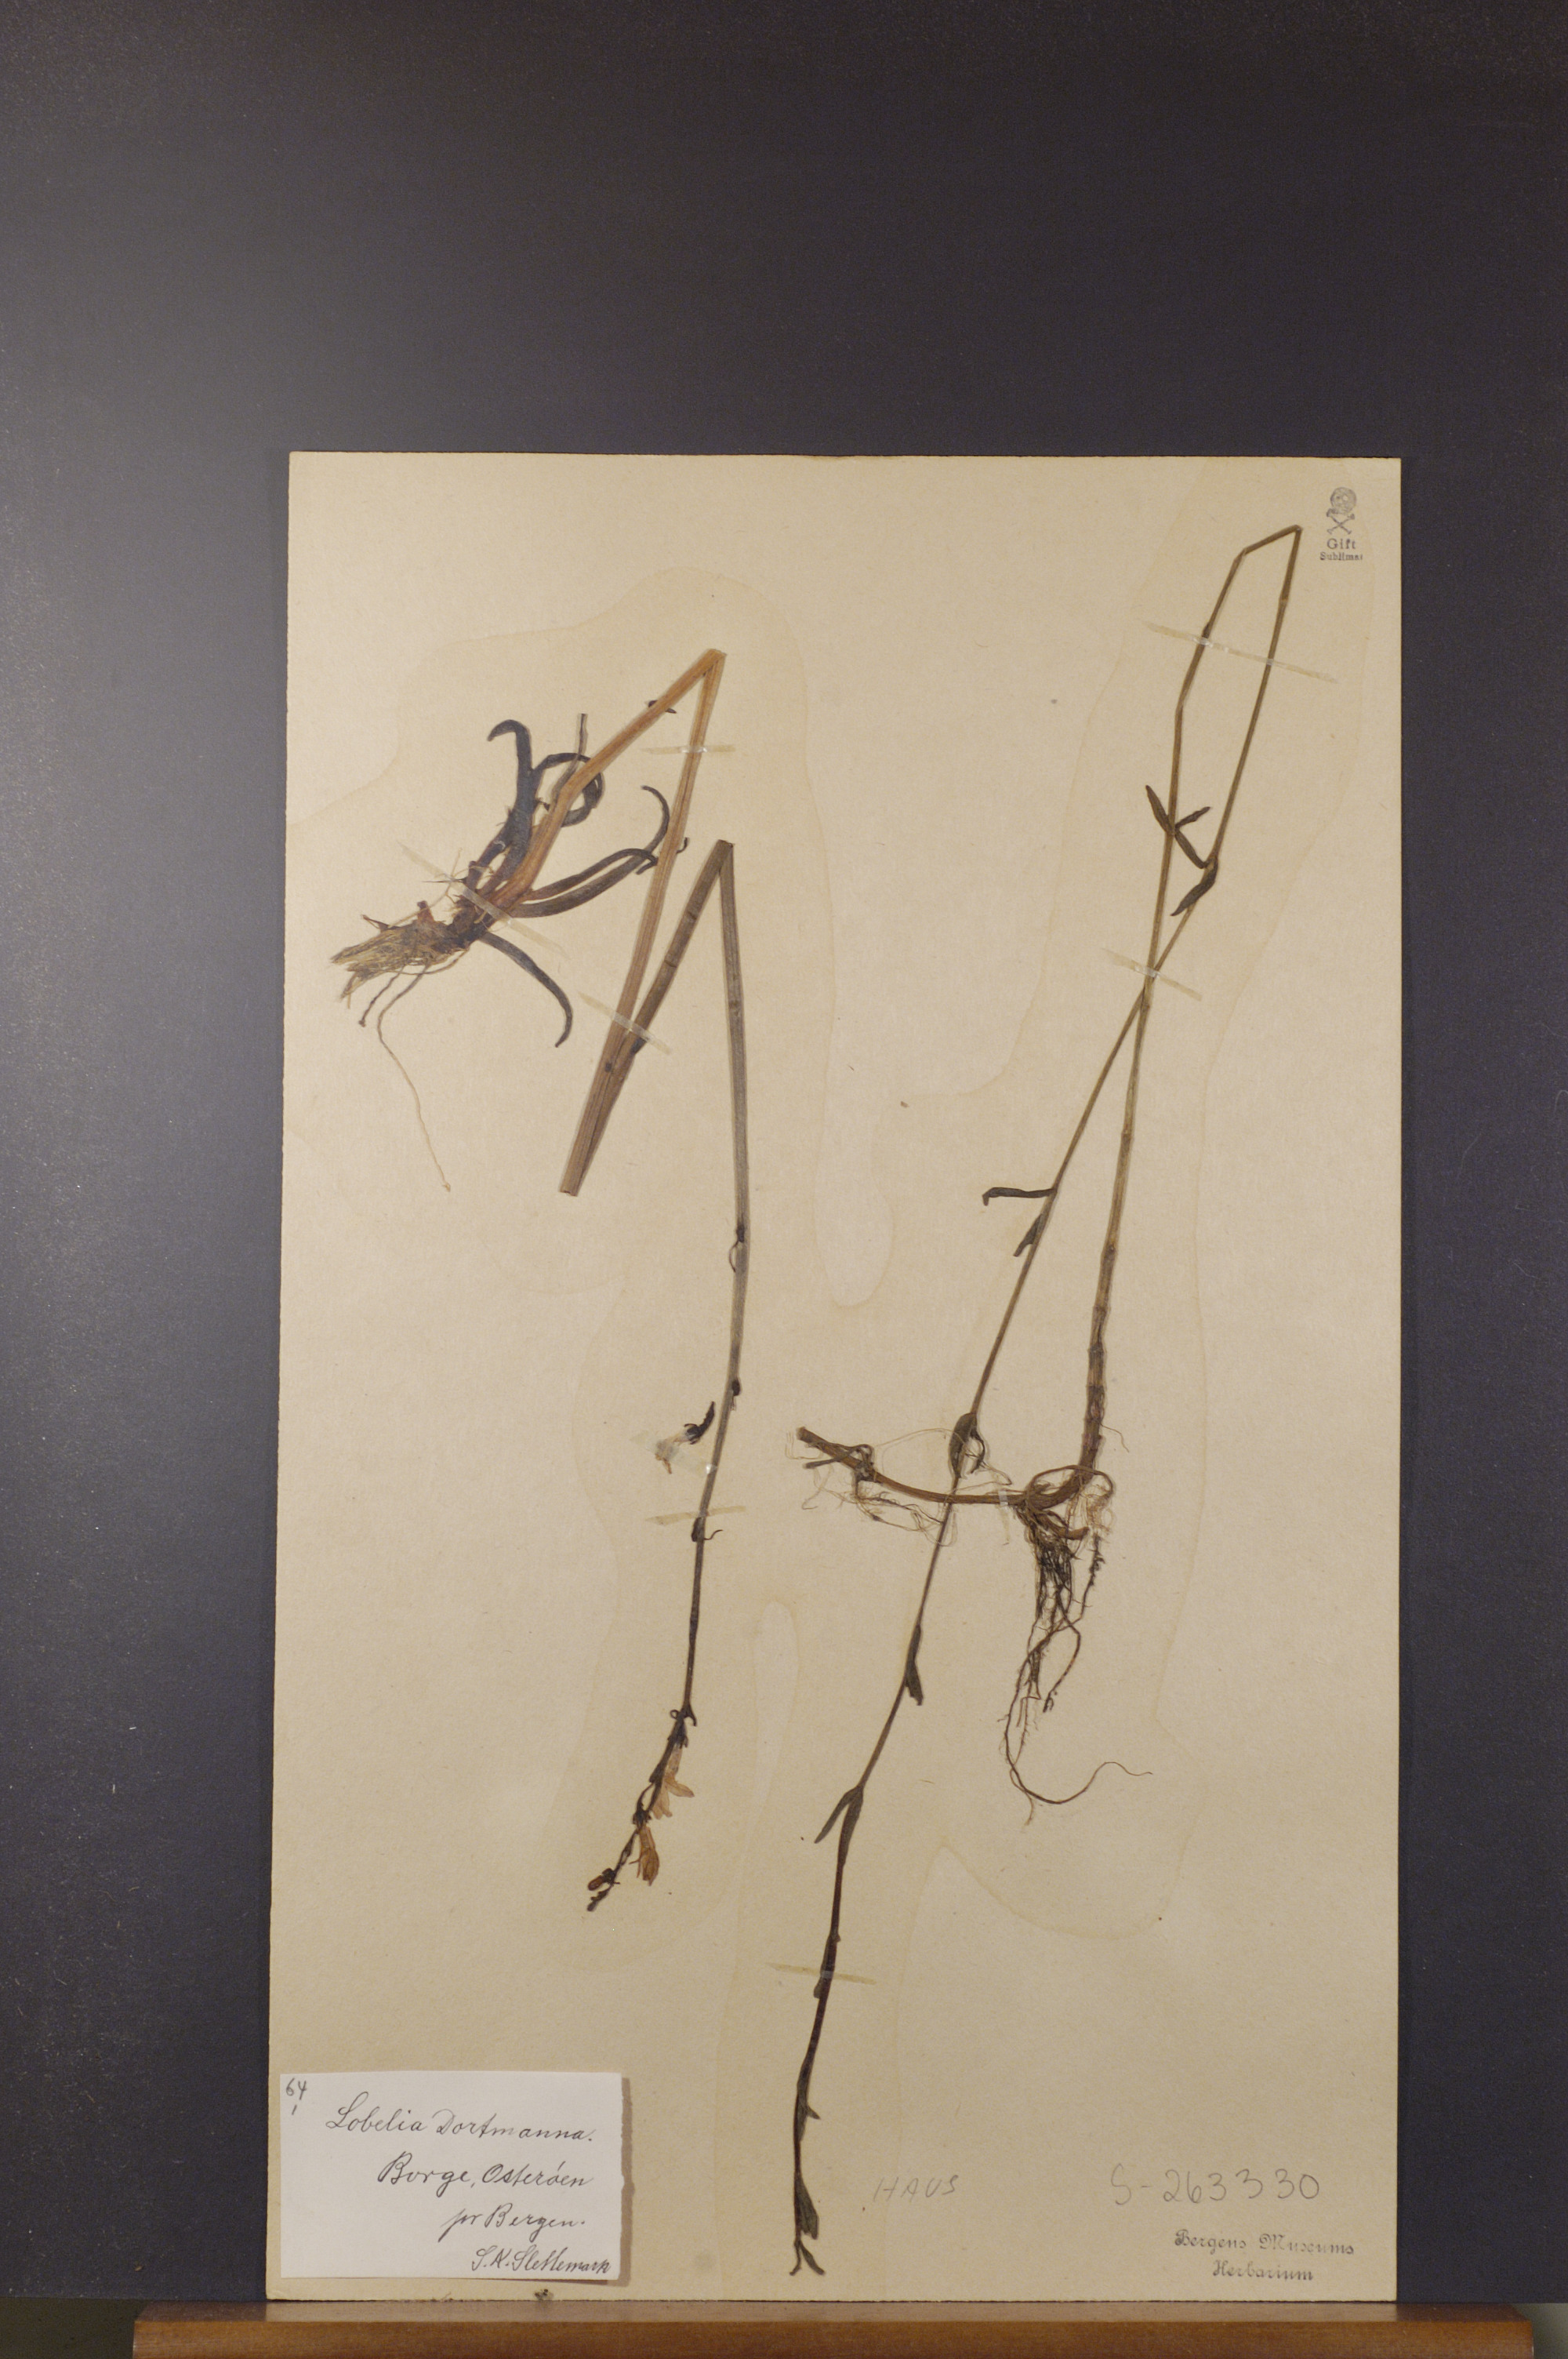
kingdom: Plantae
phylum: Tracheophyta
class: Magnoliopsida
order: Asterales
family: Campanulaceae
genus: Lobelia
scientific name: Lobelia dortmanna
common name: Water lobelia
